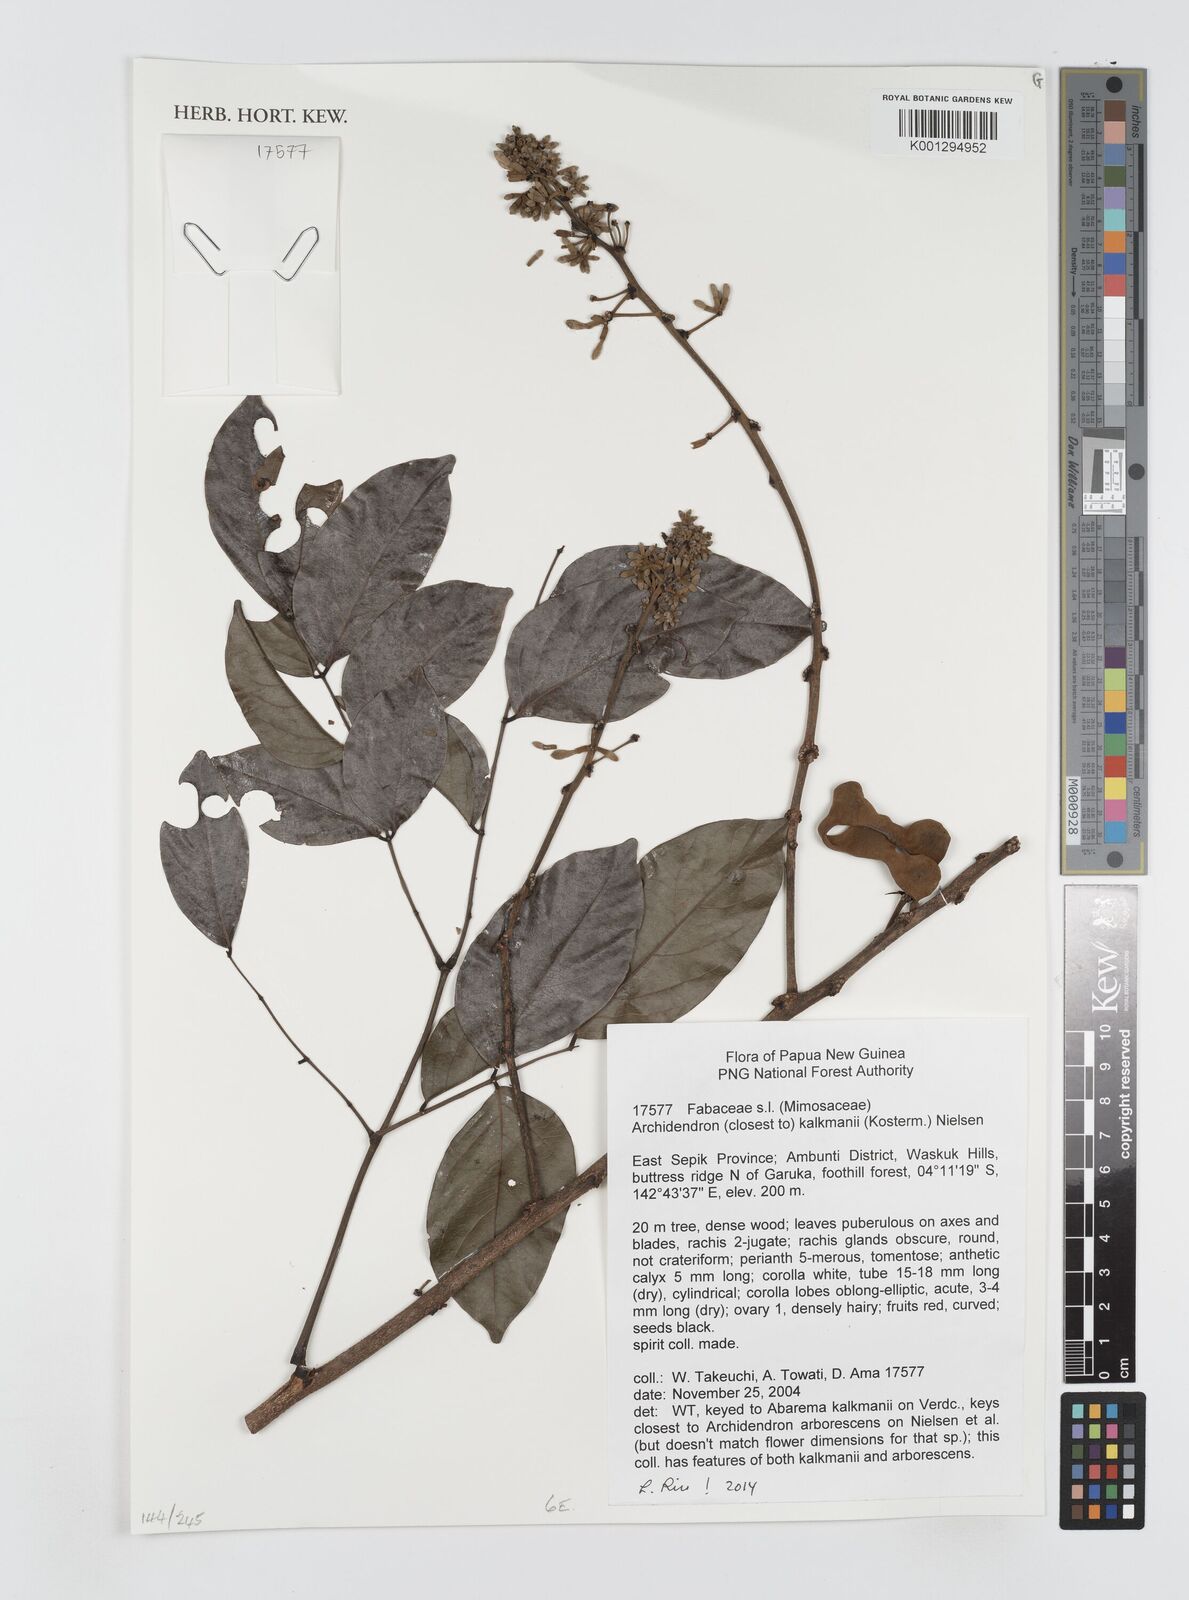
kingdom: Plantae
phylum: Tracheophyta
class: Magnoliopsida
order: Fabales
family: Fabaceae
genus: Archidendron
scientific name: Archidendron
